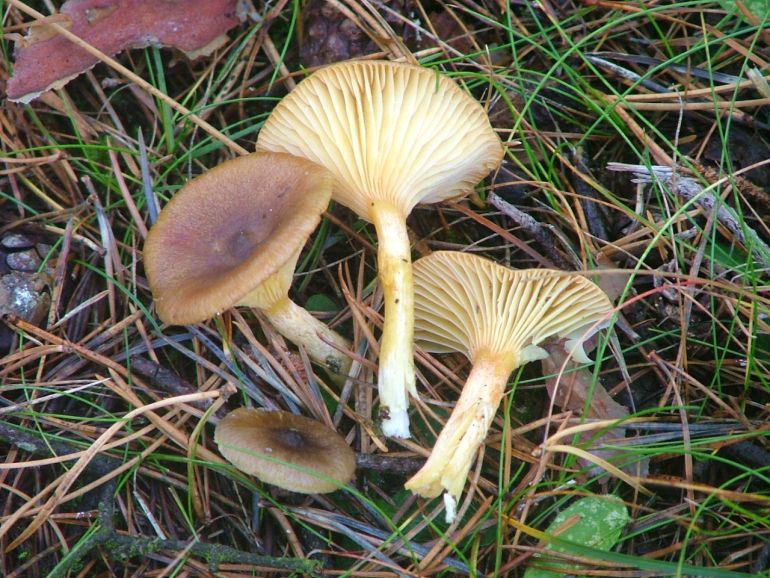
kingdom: Fungi
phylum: Basidiomycota
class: Agaricomycetes
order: Agaricales
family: Hygrophoraceae
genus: Hygrophorus
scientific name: Hygrophorus hypothejus
